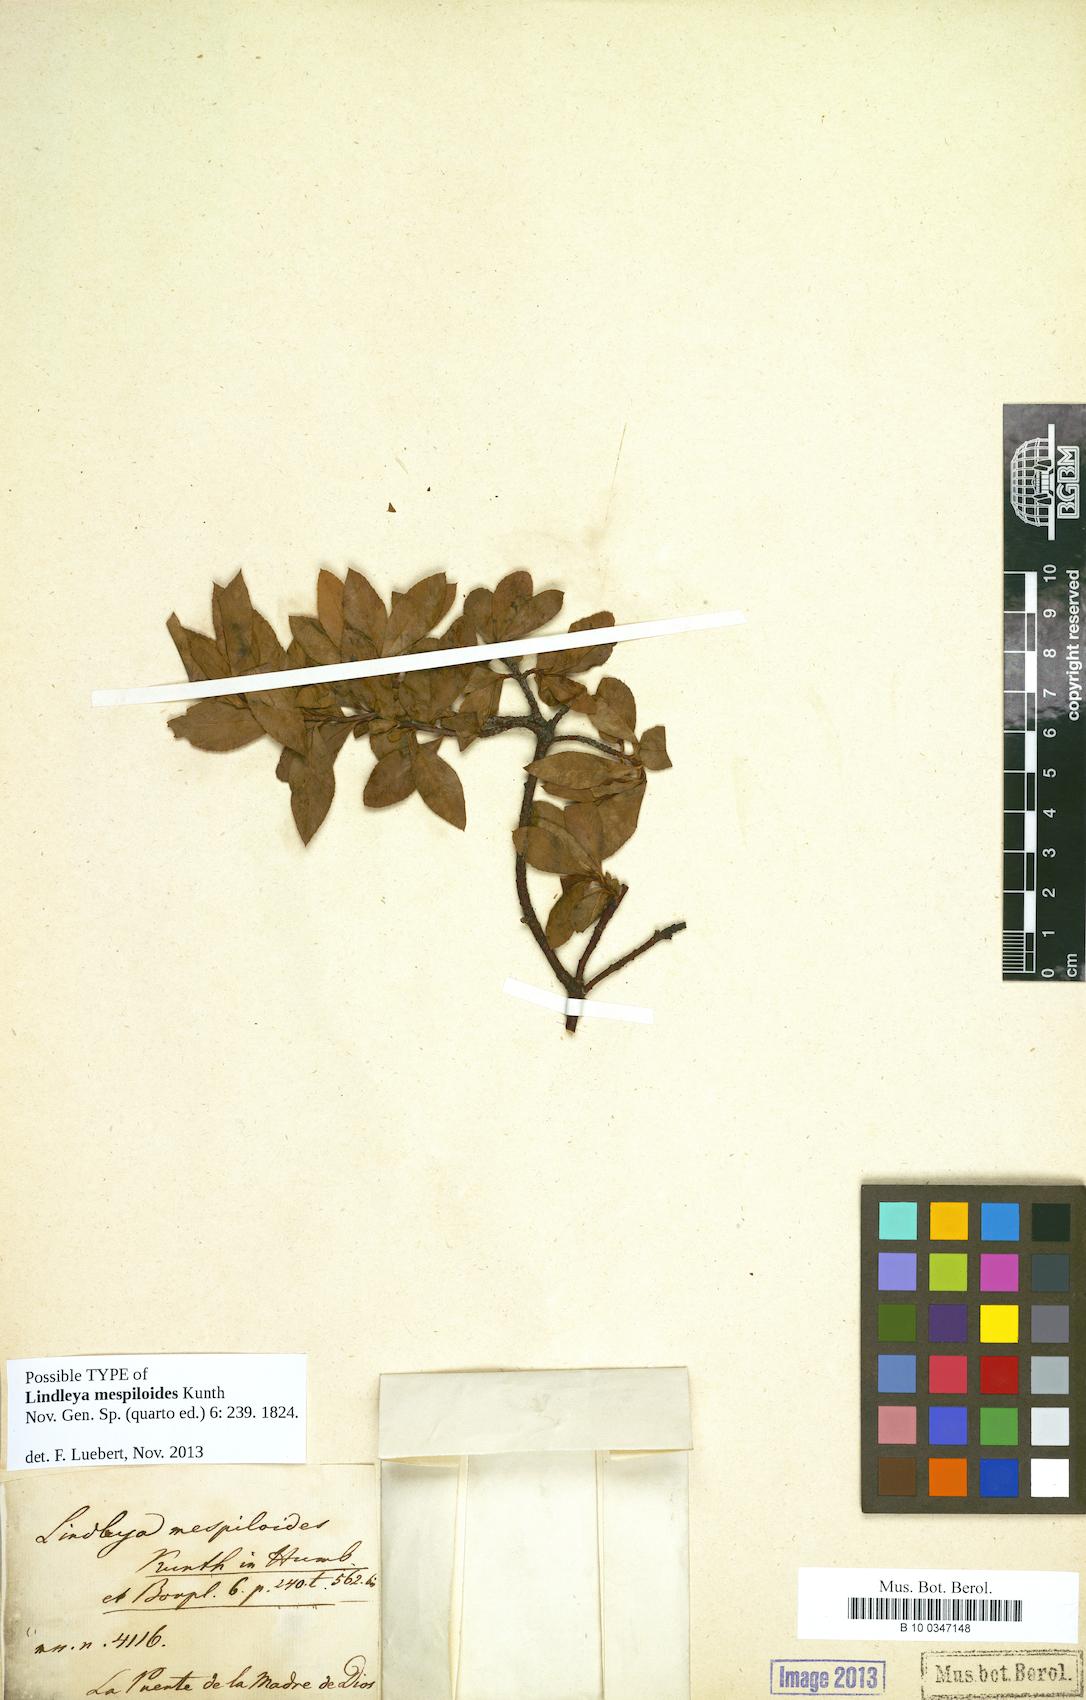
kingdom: Plantae
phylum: Tracheophyta
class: Magnoliopsida
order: Rosales
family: Rosaceae
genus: Lindleya
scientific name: Lindleya mespiloides
